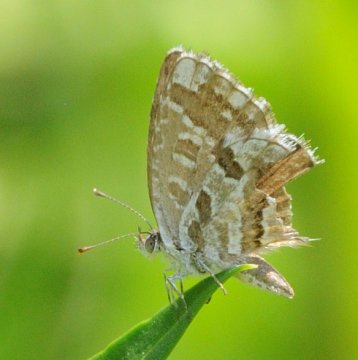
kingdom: Animalia
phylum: Arthropoda
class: Insecta
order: Lepidoptera
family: Lycaenidae
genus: Cacyreus
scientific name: Cacyreus marshalli
